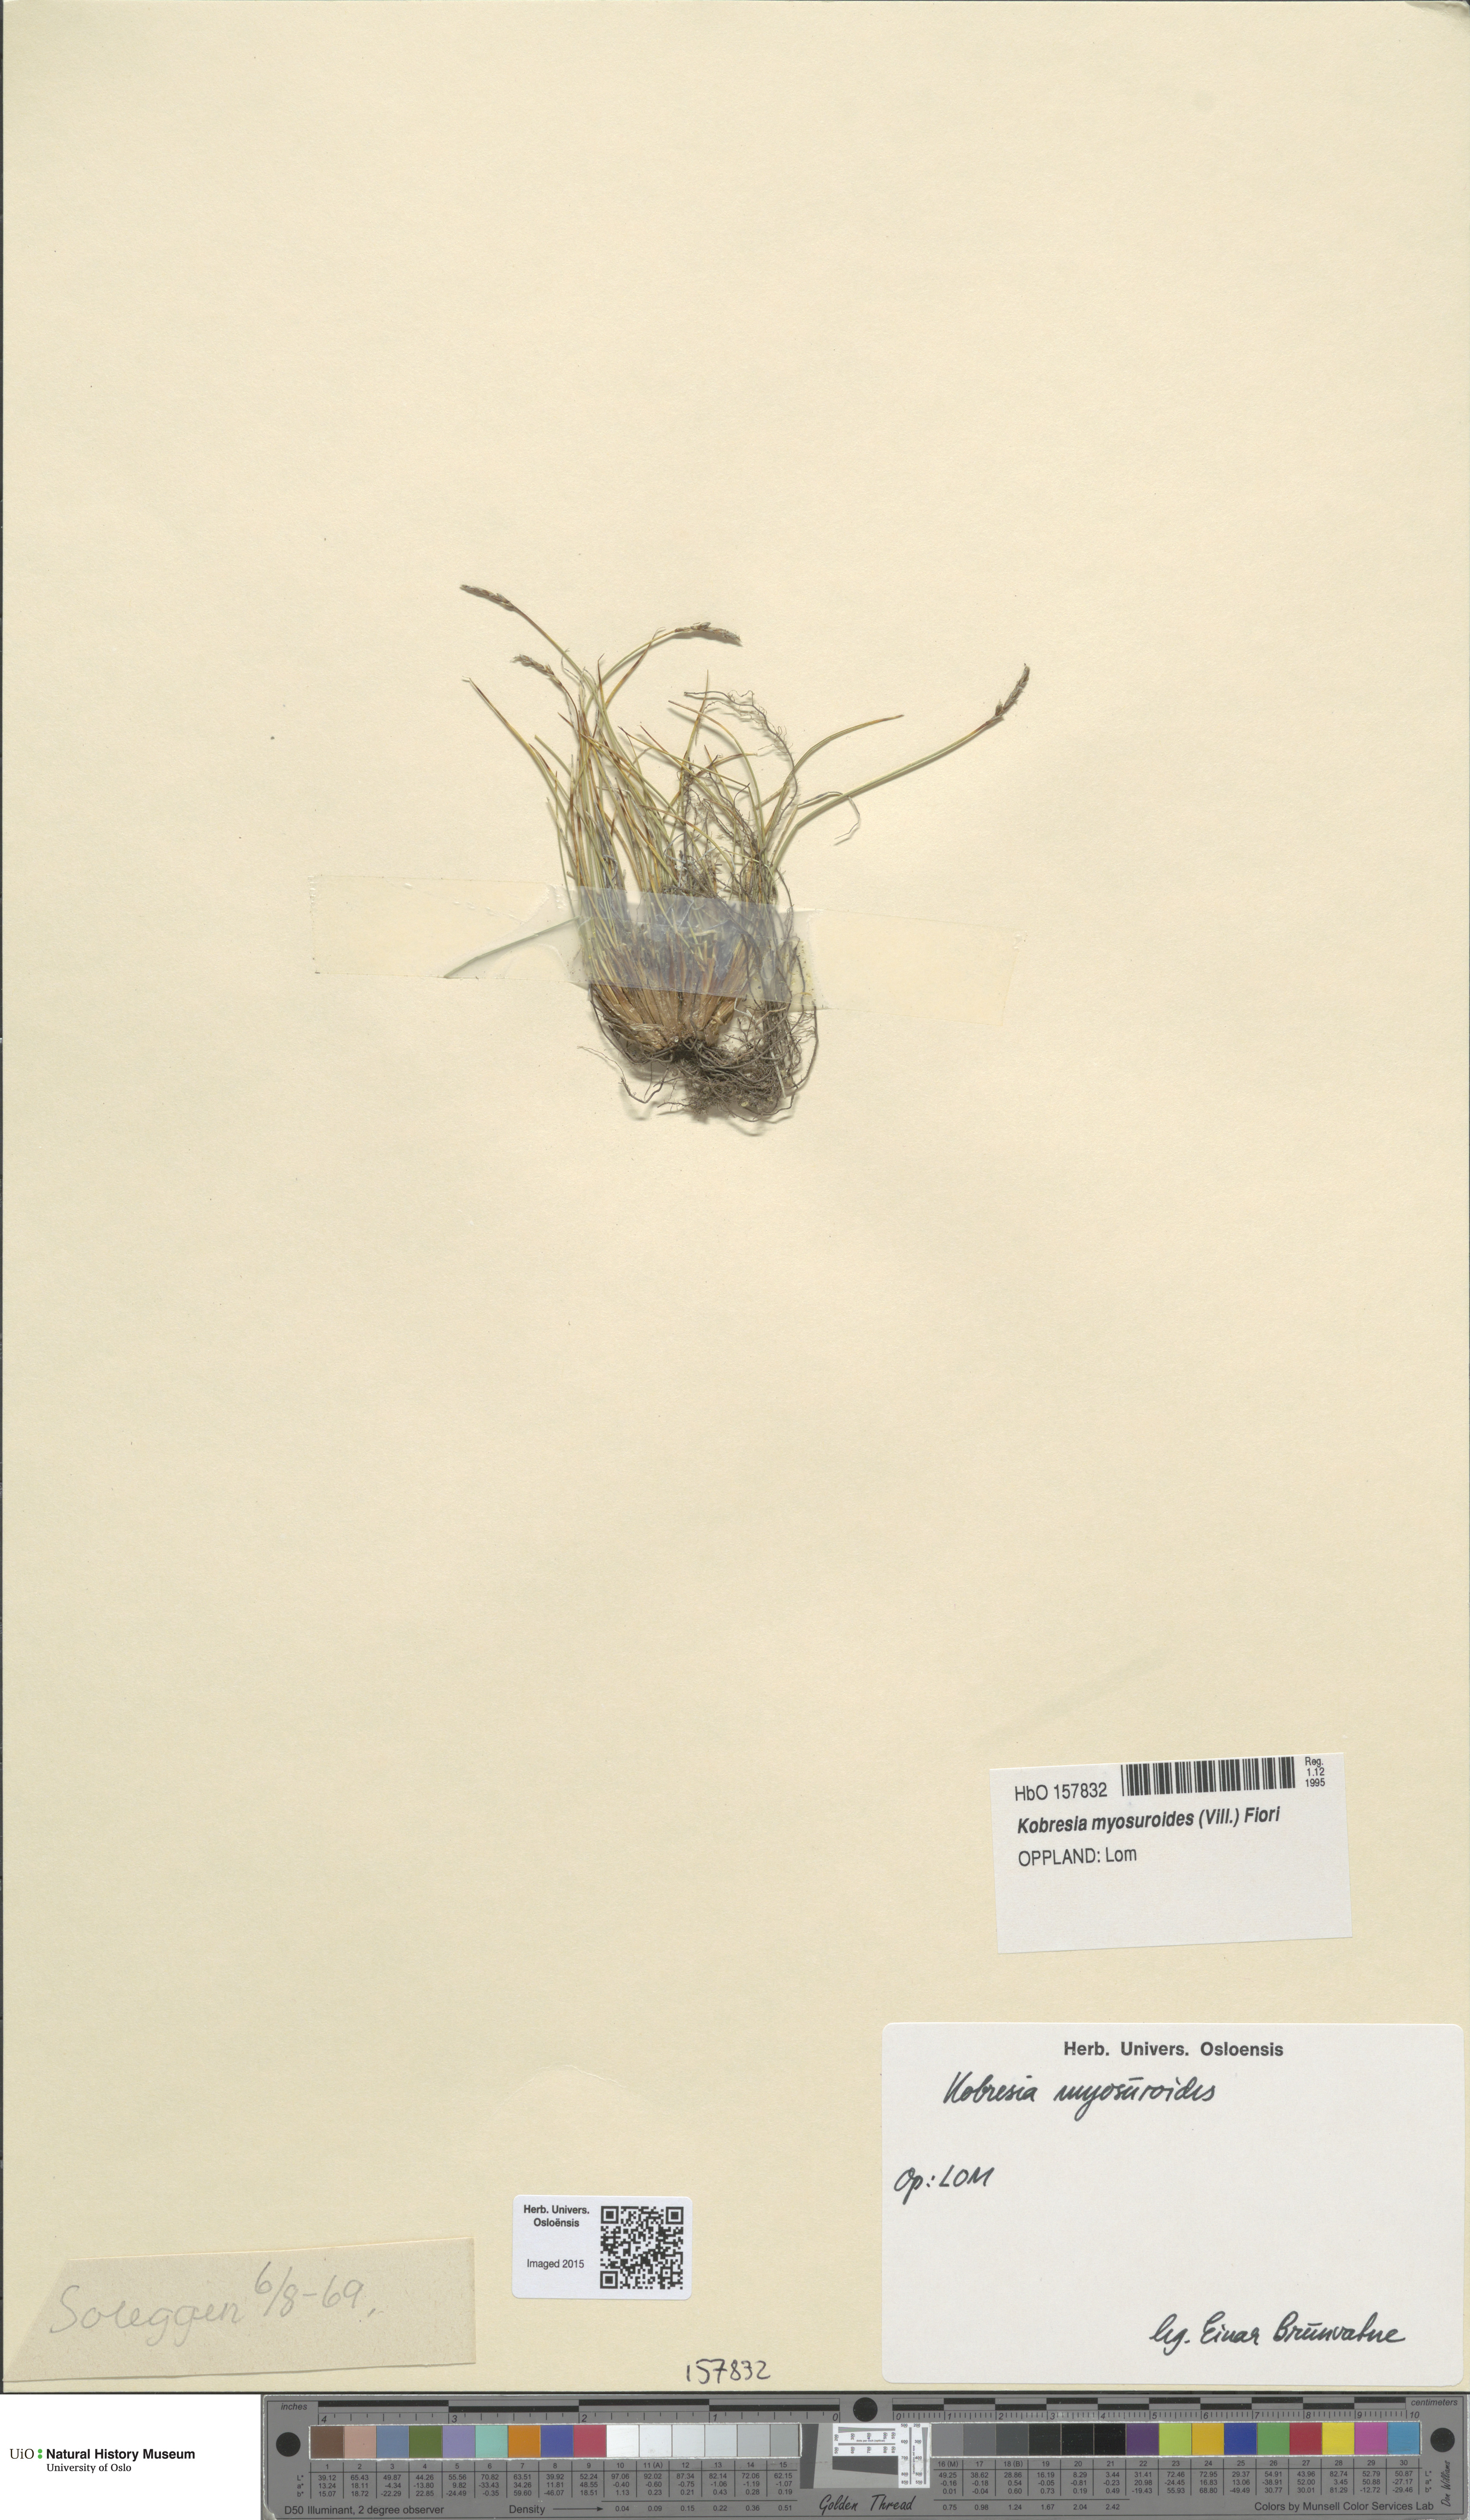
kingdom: Plantae
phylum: Tracheophyta
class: Liliopsida
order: Poales
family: Cyperaceae
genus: Carex
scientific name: Carex myosuroides
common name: Bellard's bog sedge
